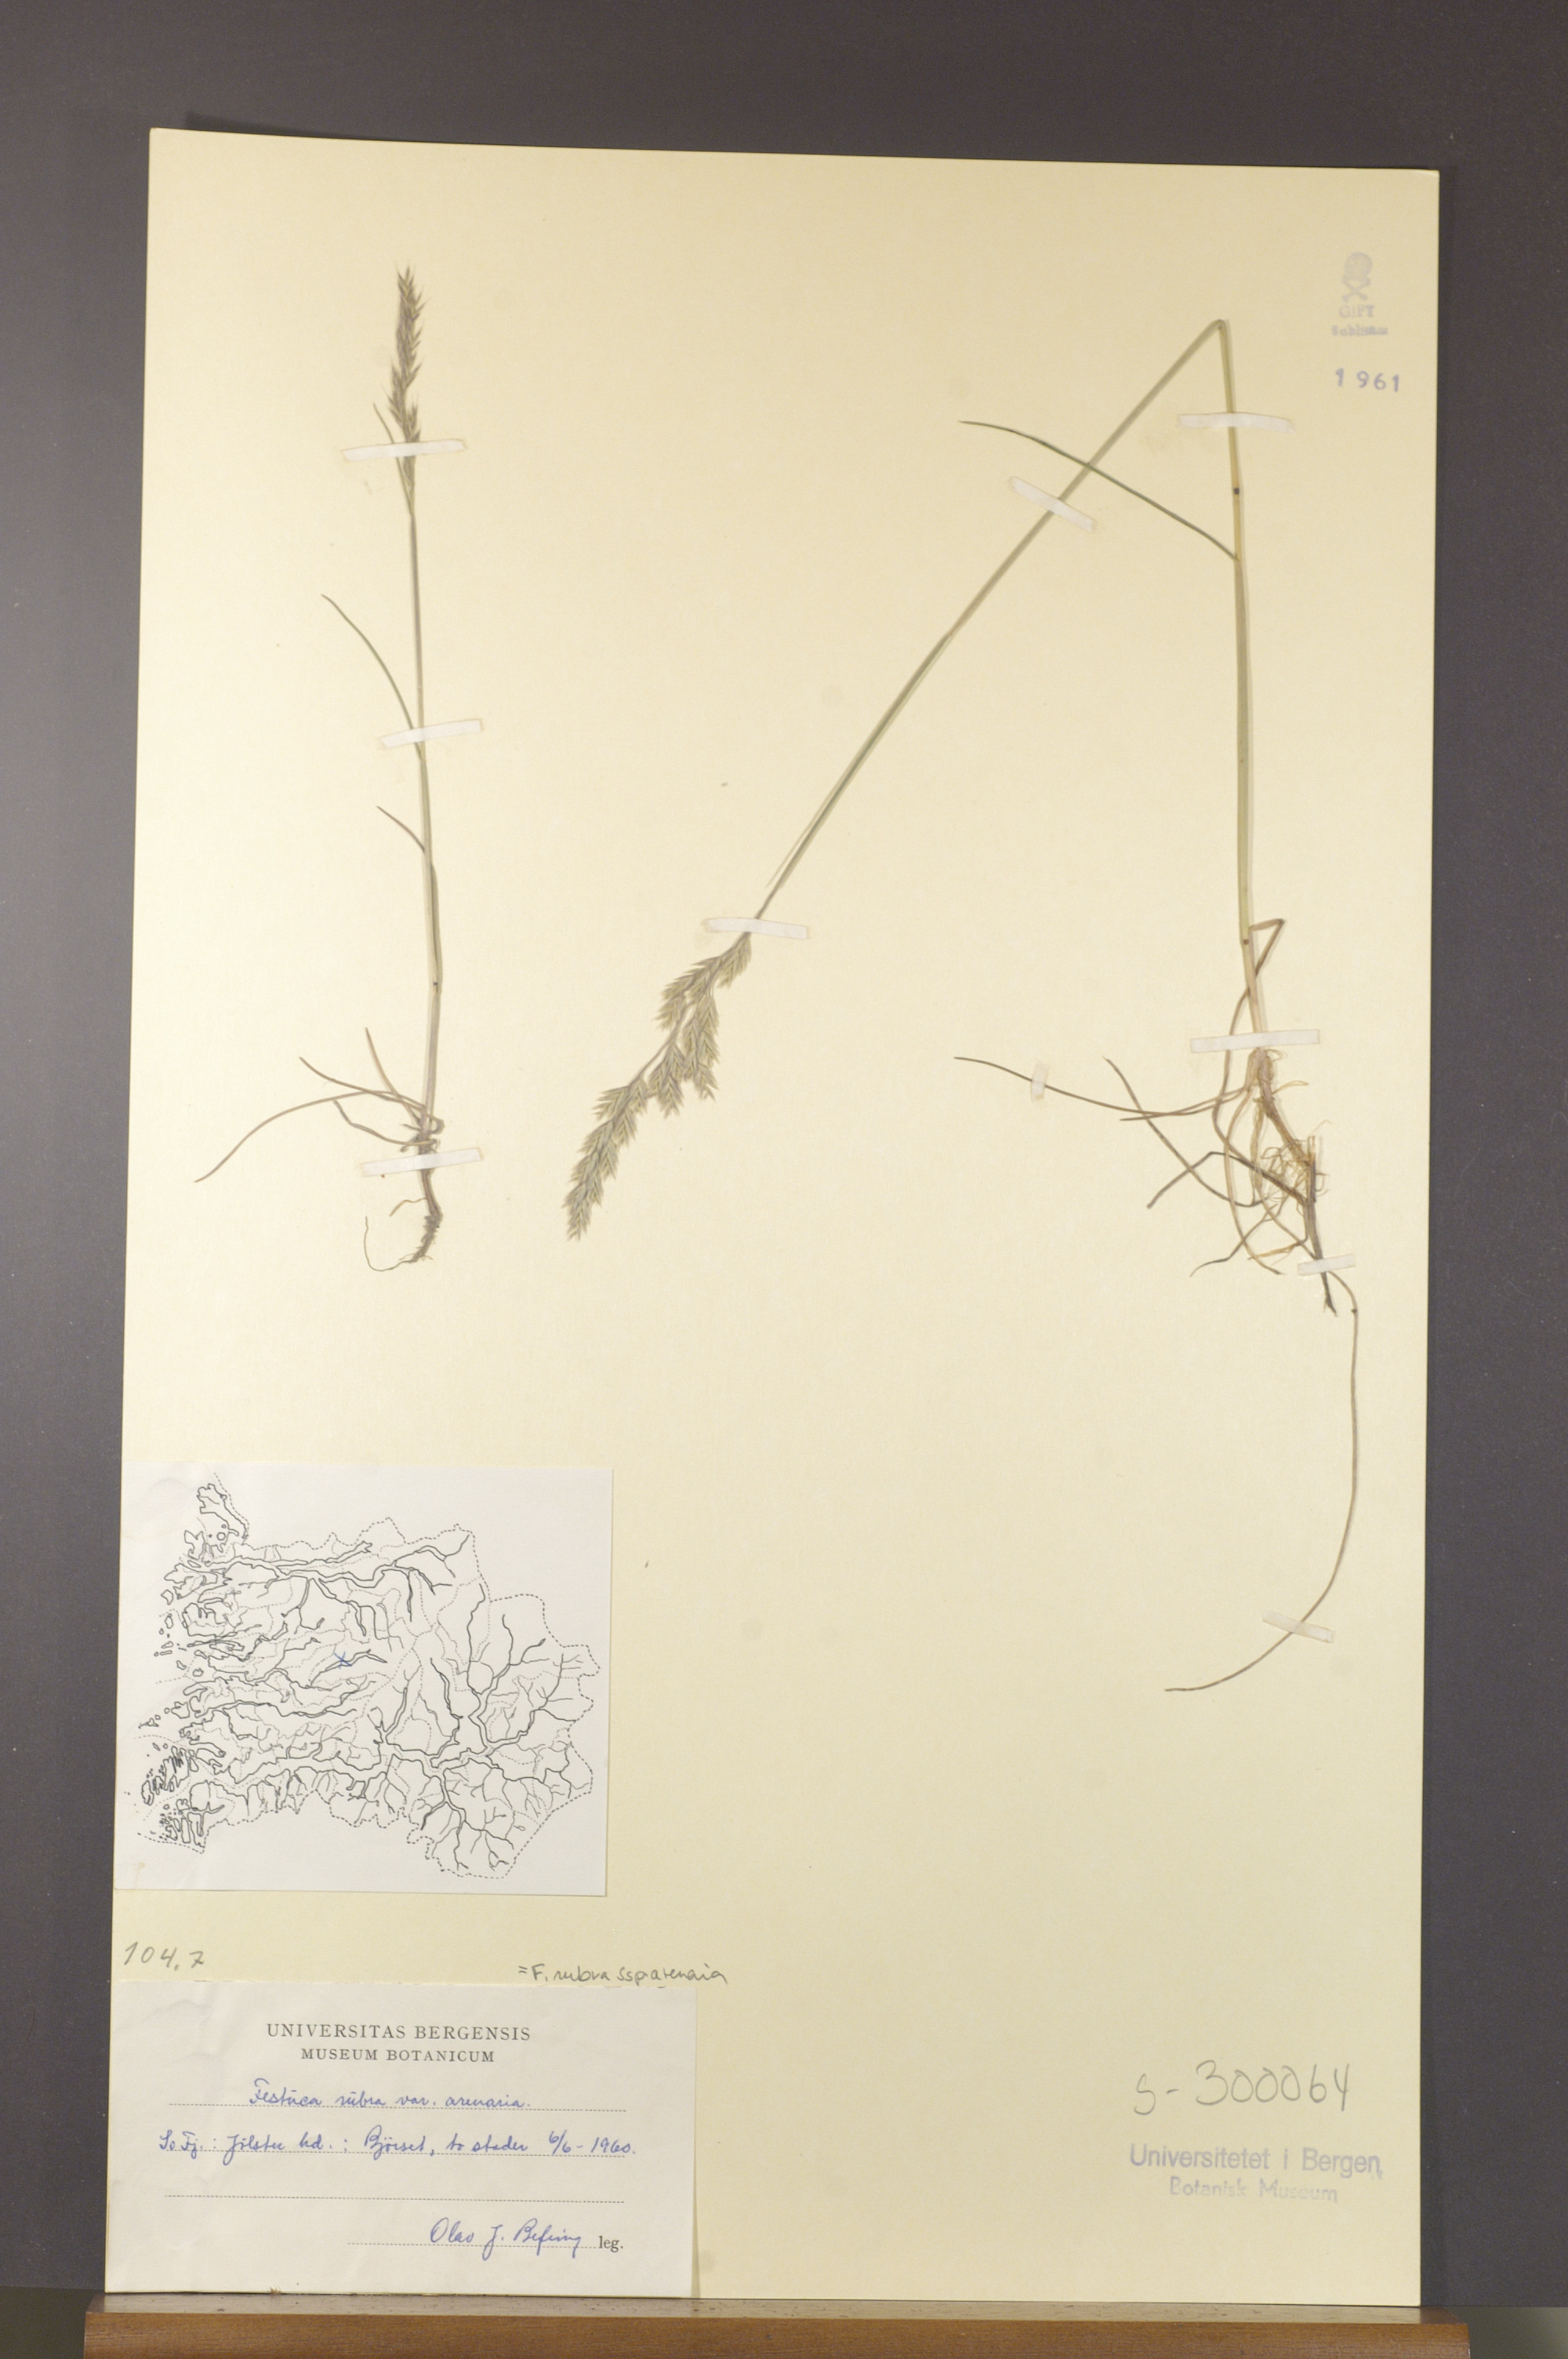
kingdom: Plantae
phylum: Tracheophyta
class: Liliopsida
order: Poales
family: Poaceae
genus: Festuca
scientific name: Festuca rubra
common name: Red fescue
